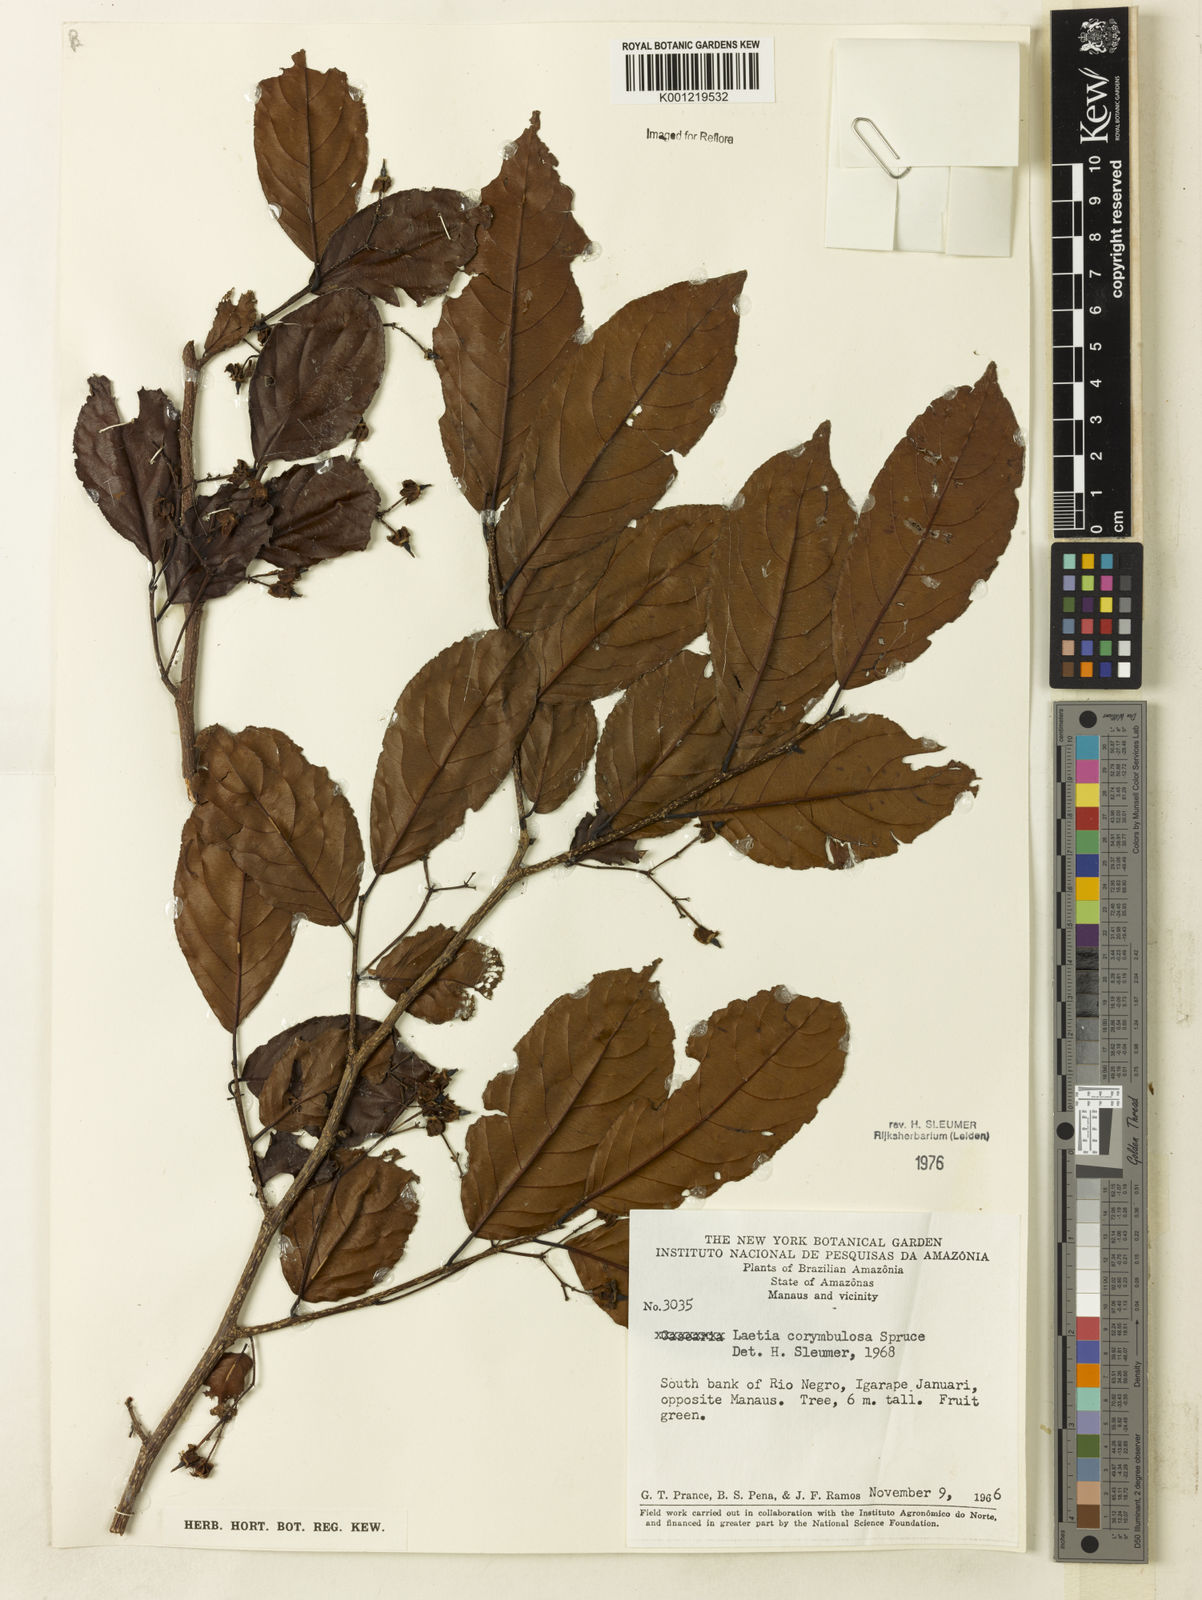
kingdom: Plantae
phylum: Tracheophyta
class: Magnoliopsida
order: Malpighiales
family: Salicaceae
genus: Casearia
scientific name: Casearia corymbulosa
